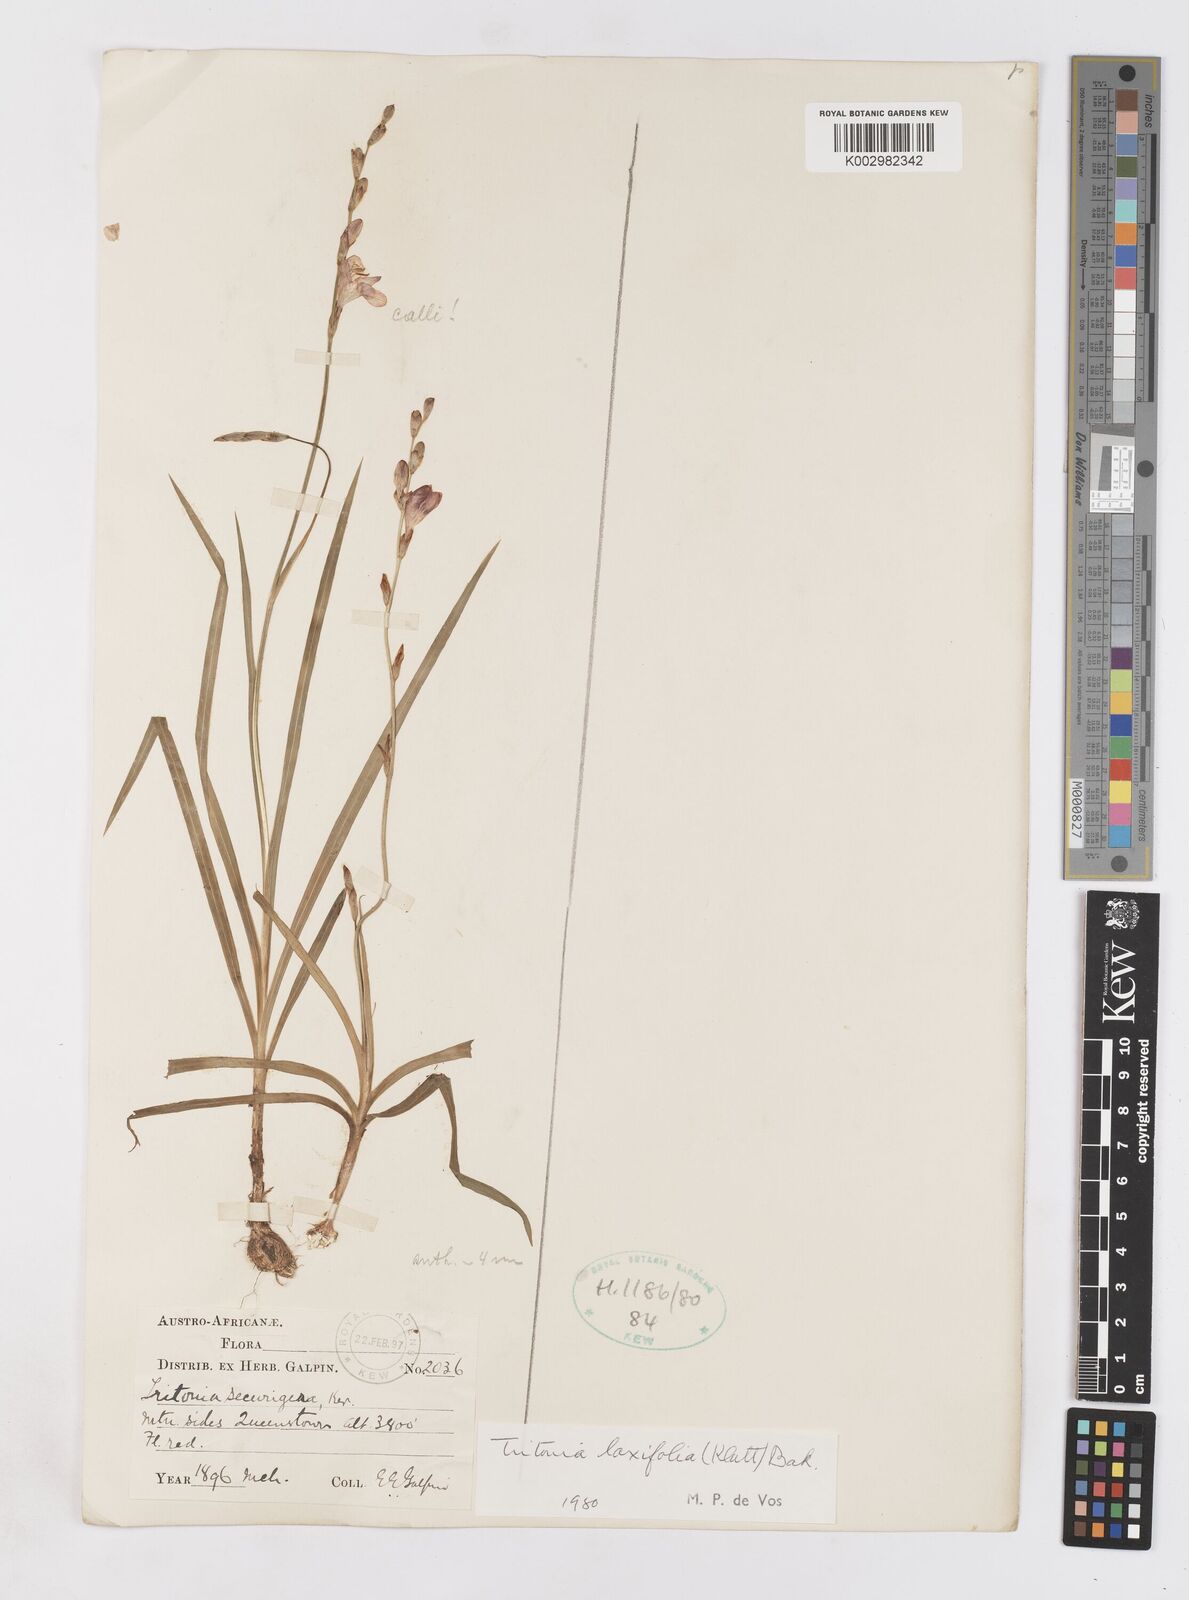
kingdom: Plantae
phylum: Tracheophyta
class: Liliopsida
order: Asparagales
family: Iridaceae
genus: Tritonia
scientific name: Tritonia laxifolia
